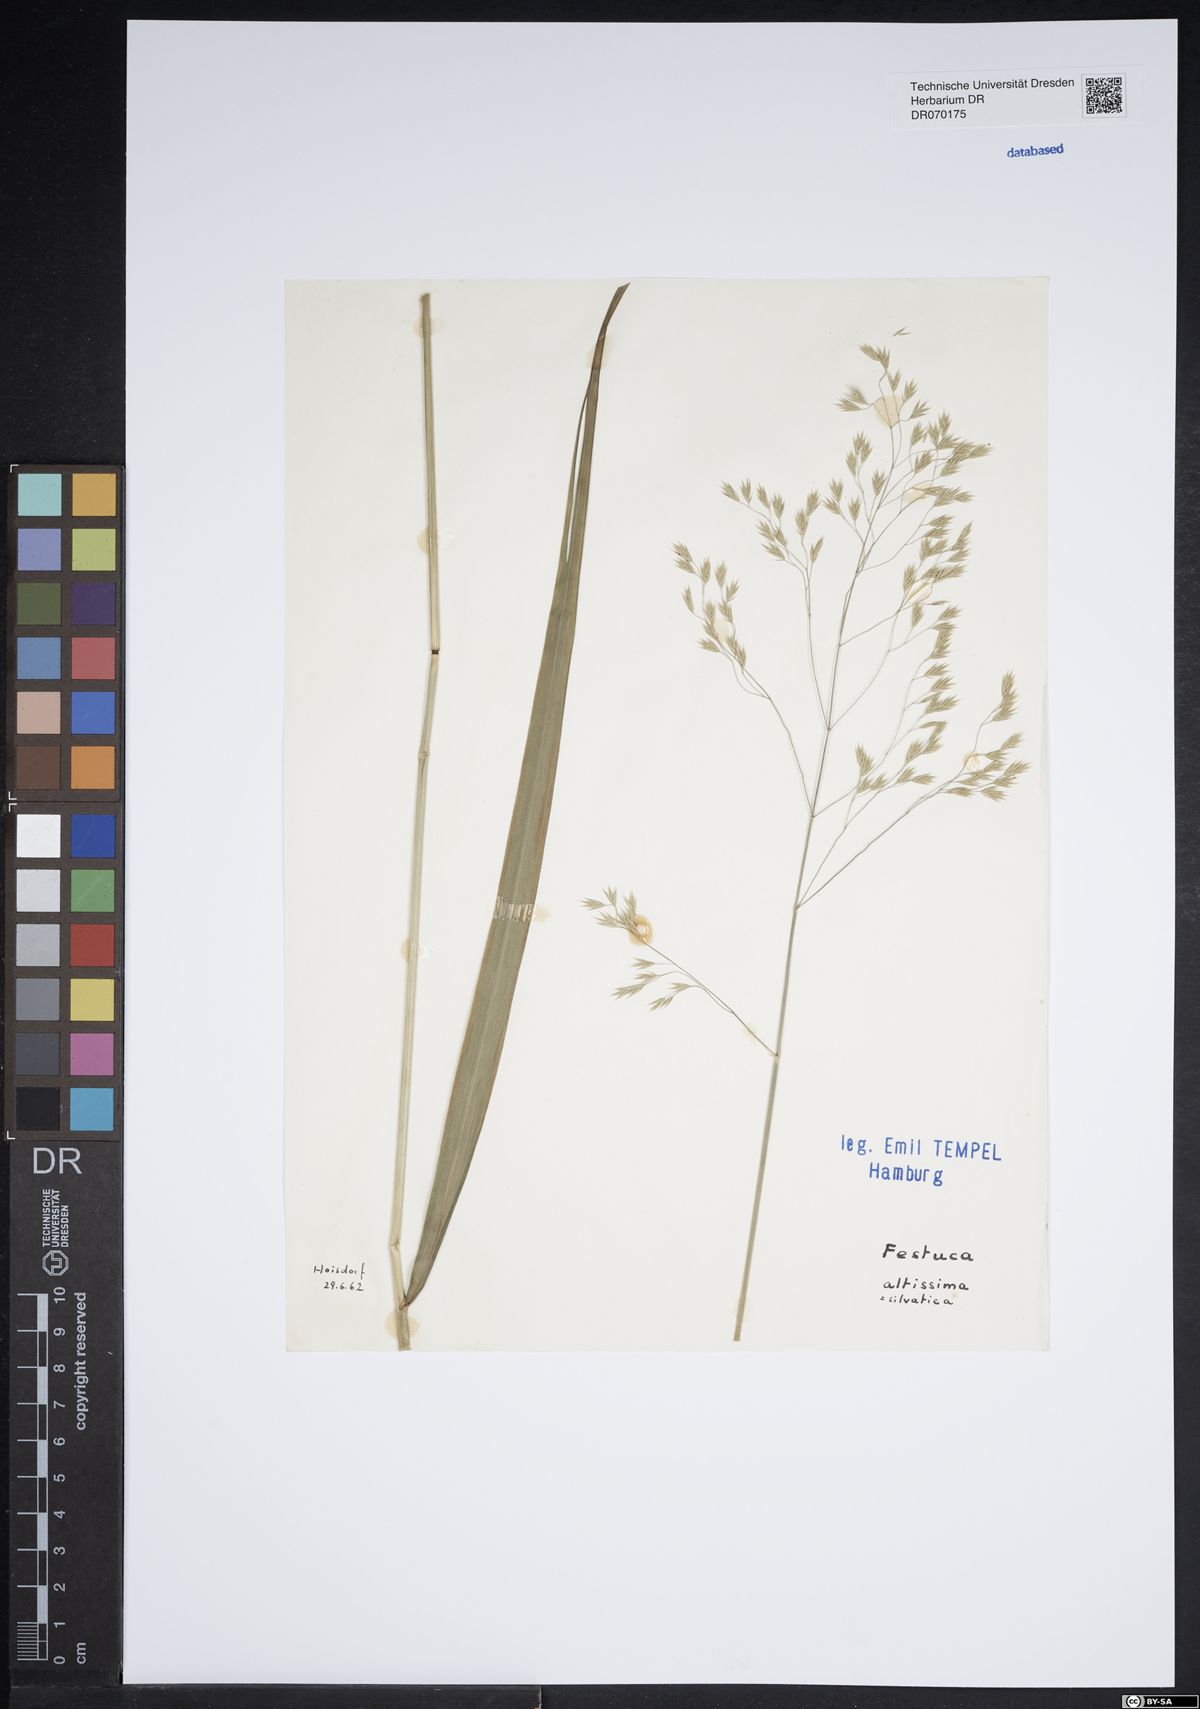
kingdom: Plantae
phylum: Tracheophyta
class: Liliopsida
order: Poales
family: Poaceae
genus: Festuca
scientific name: Festuca altissima
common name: Wood fescue
